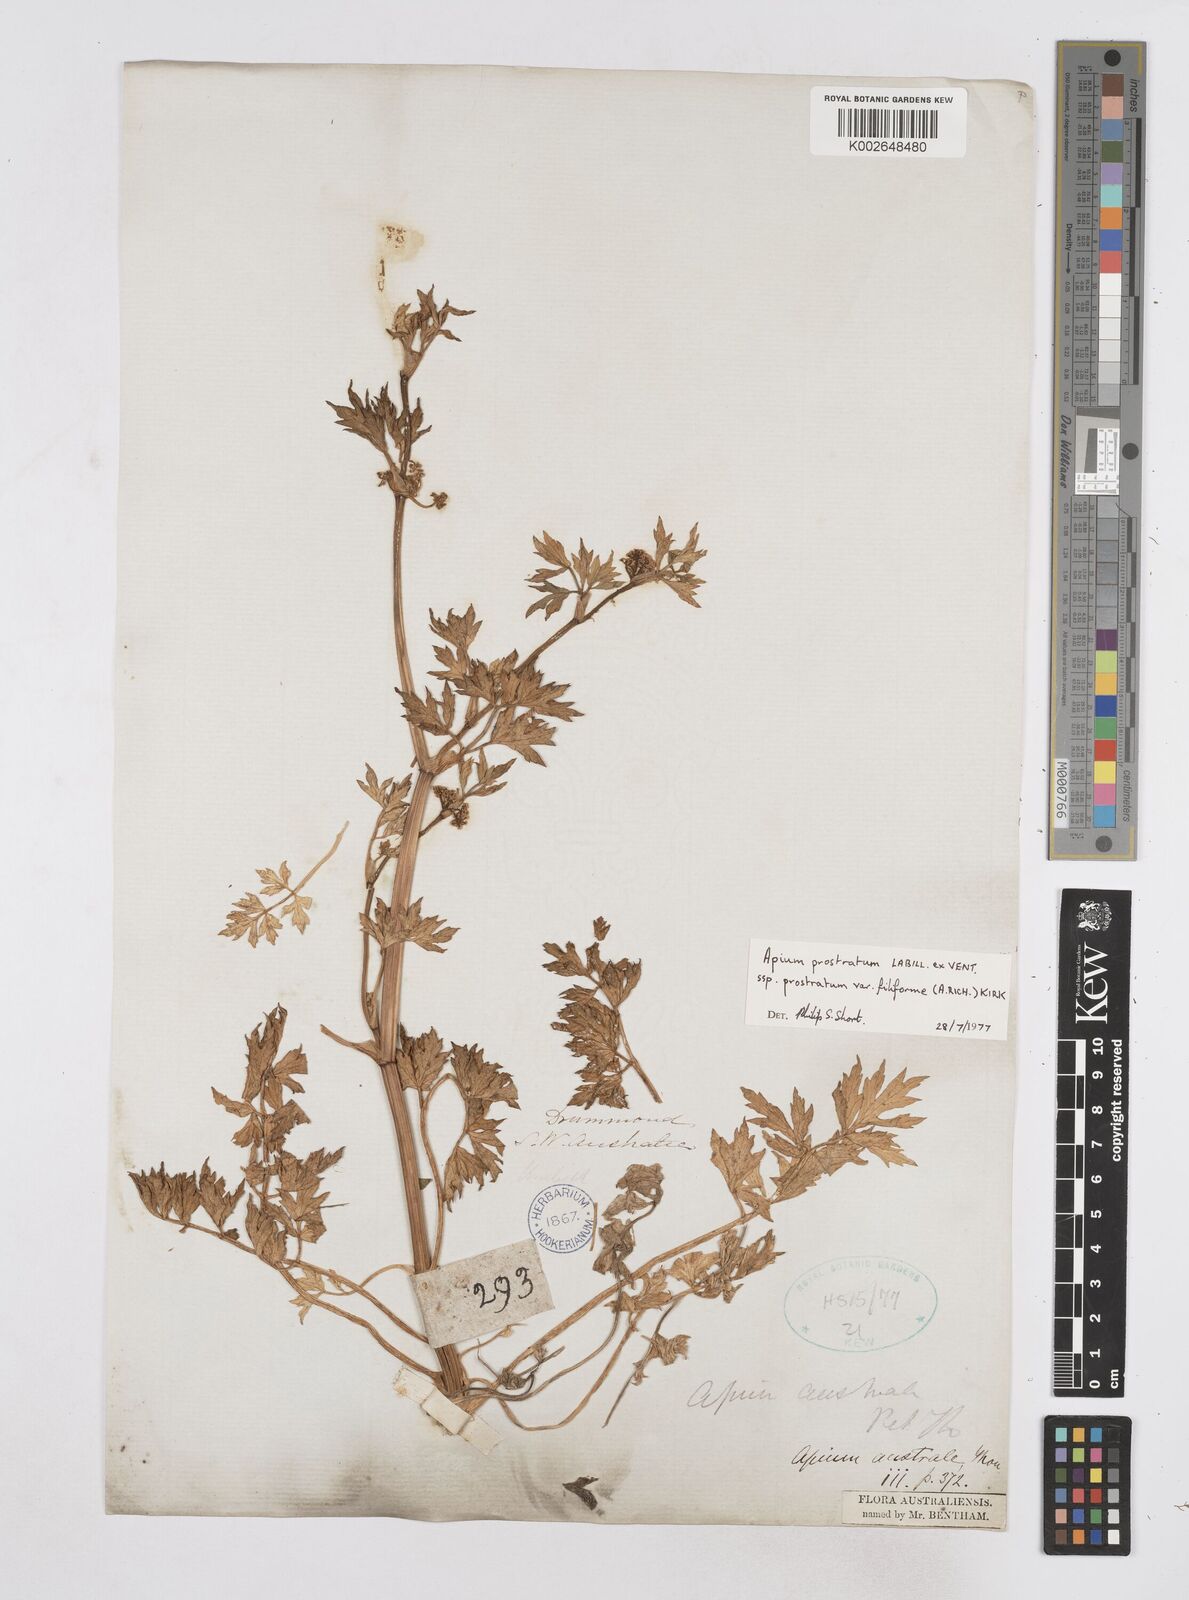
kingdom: Plantae
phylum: Tracheophyta
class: Magnoliopsida
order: Apiales
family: Apiaceae
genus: Apium
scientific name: Apium prostratum
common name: Prostrate marshwort
